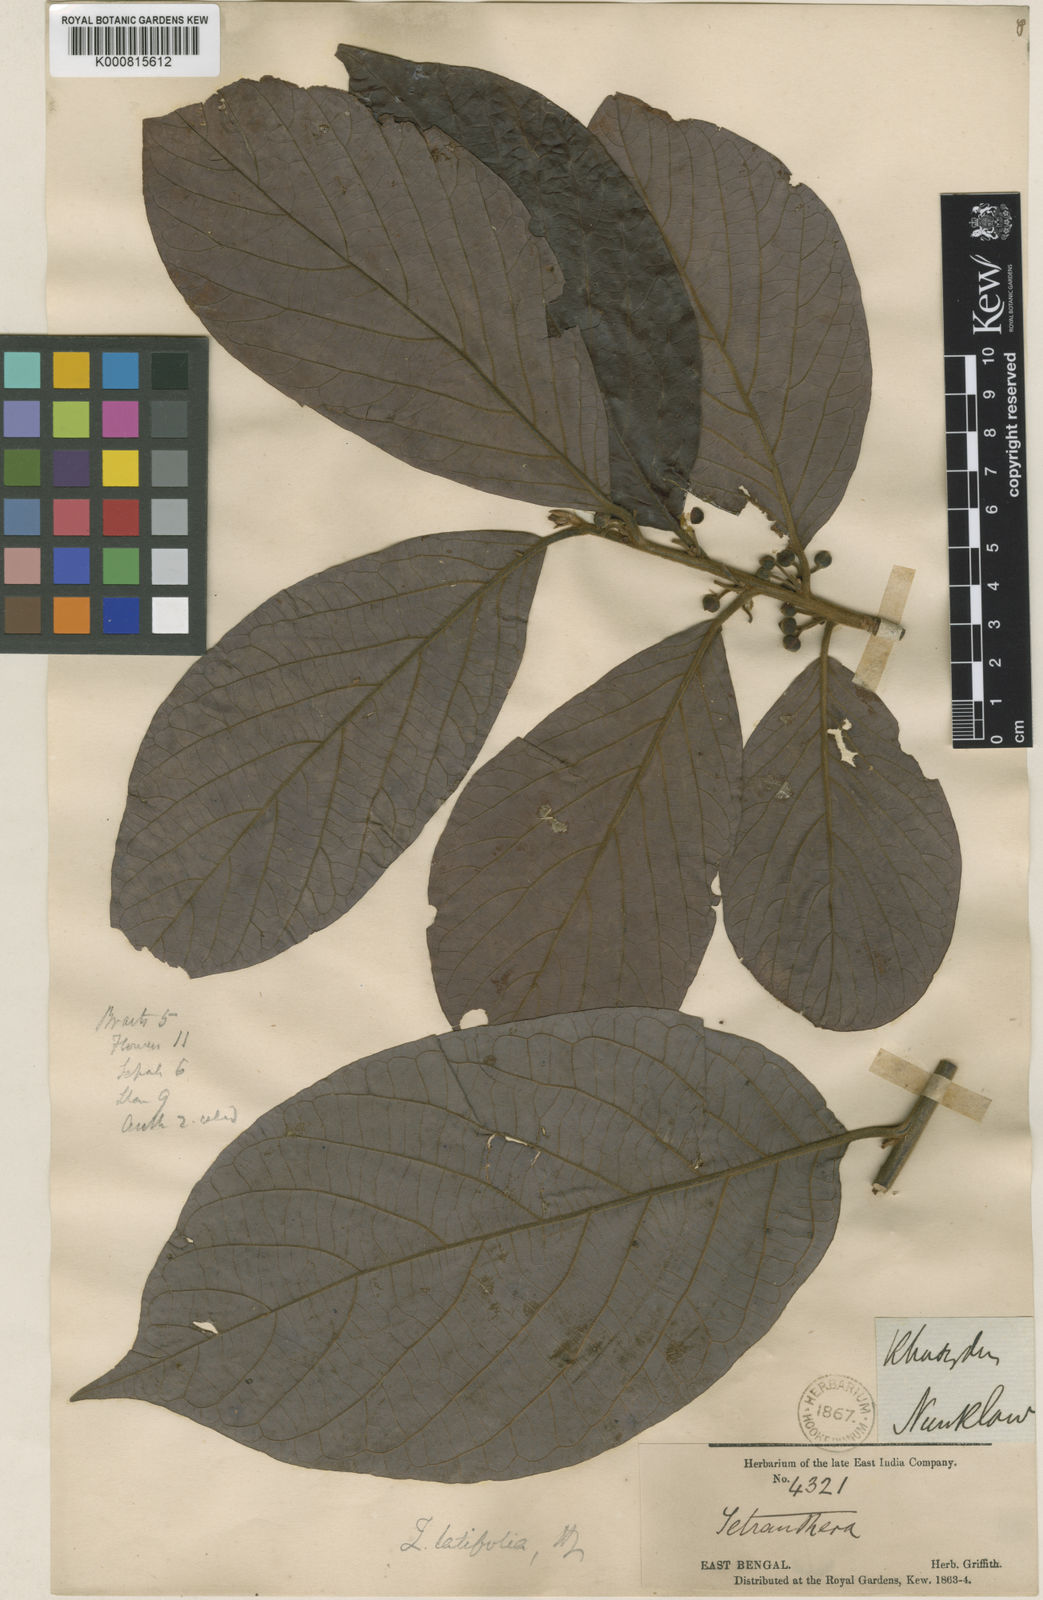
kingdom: Plantae
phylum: Tracheophyta
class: Magnoliopsida
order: Laurales
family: Lauraceae
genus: Lindera
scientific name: Lindera latifolia
